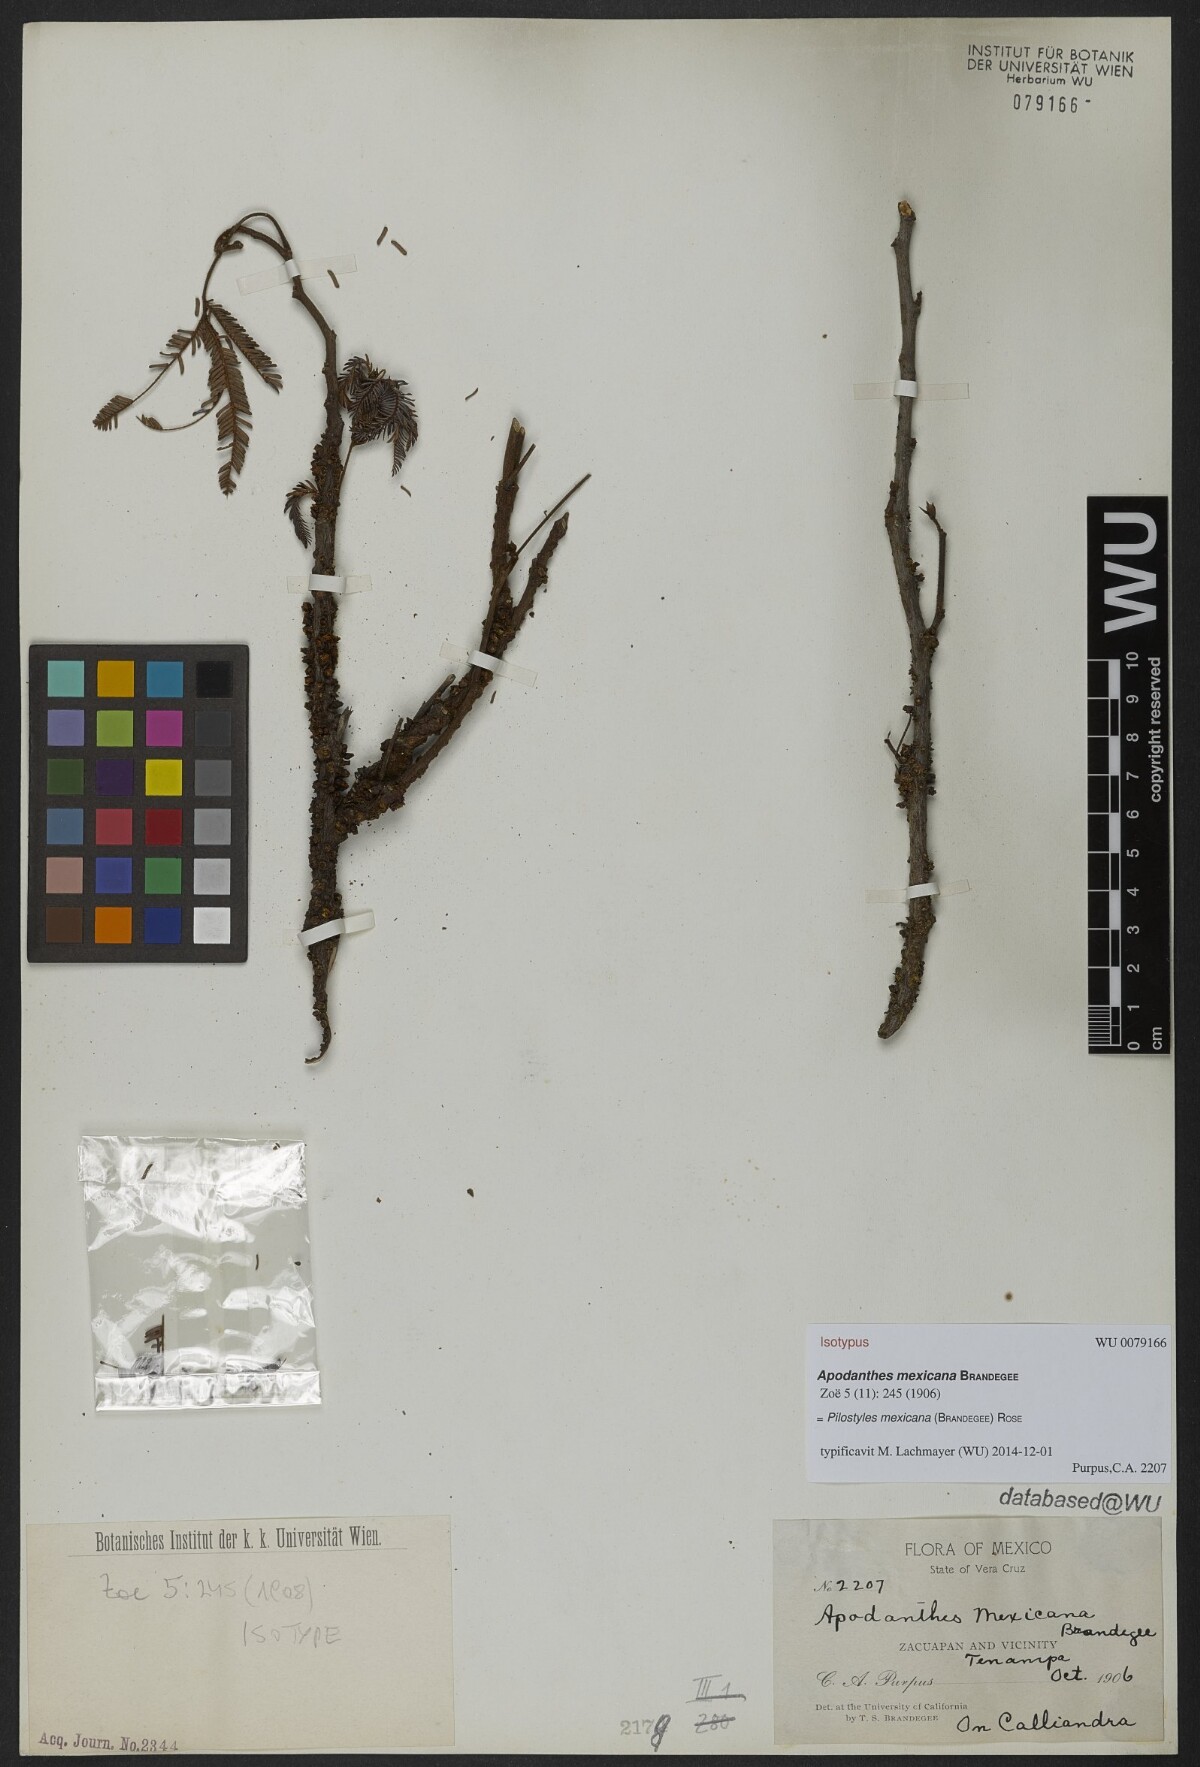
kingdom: Plantae
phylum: Tracheophyta
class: Magnoliopsida
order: Cucurbitales
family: Apodanthaceae
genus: Pilostyles
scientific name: Pilostyles mexicana
